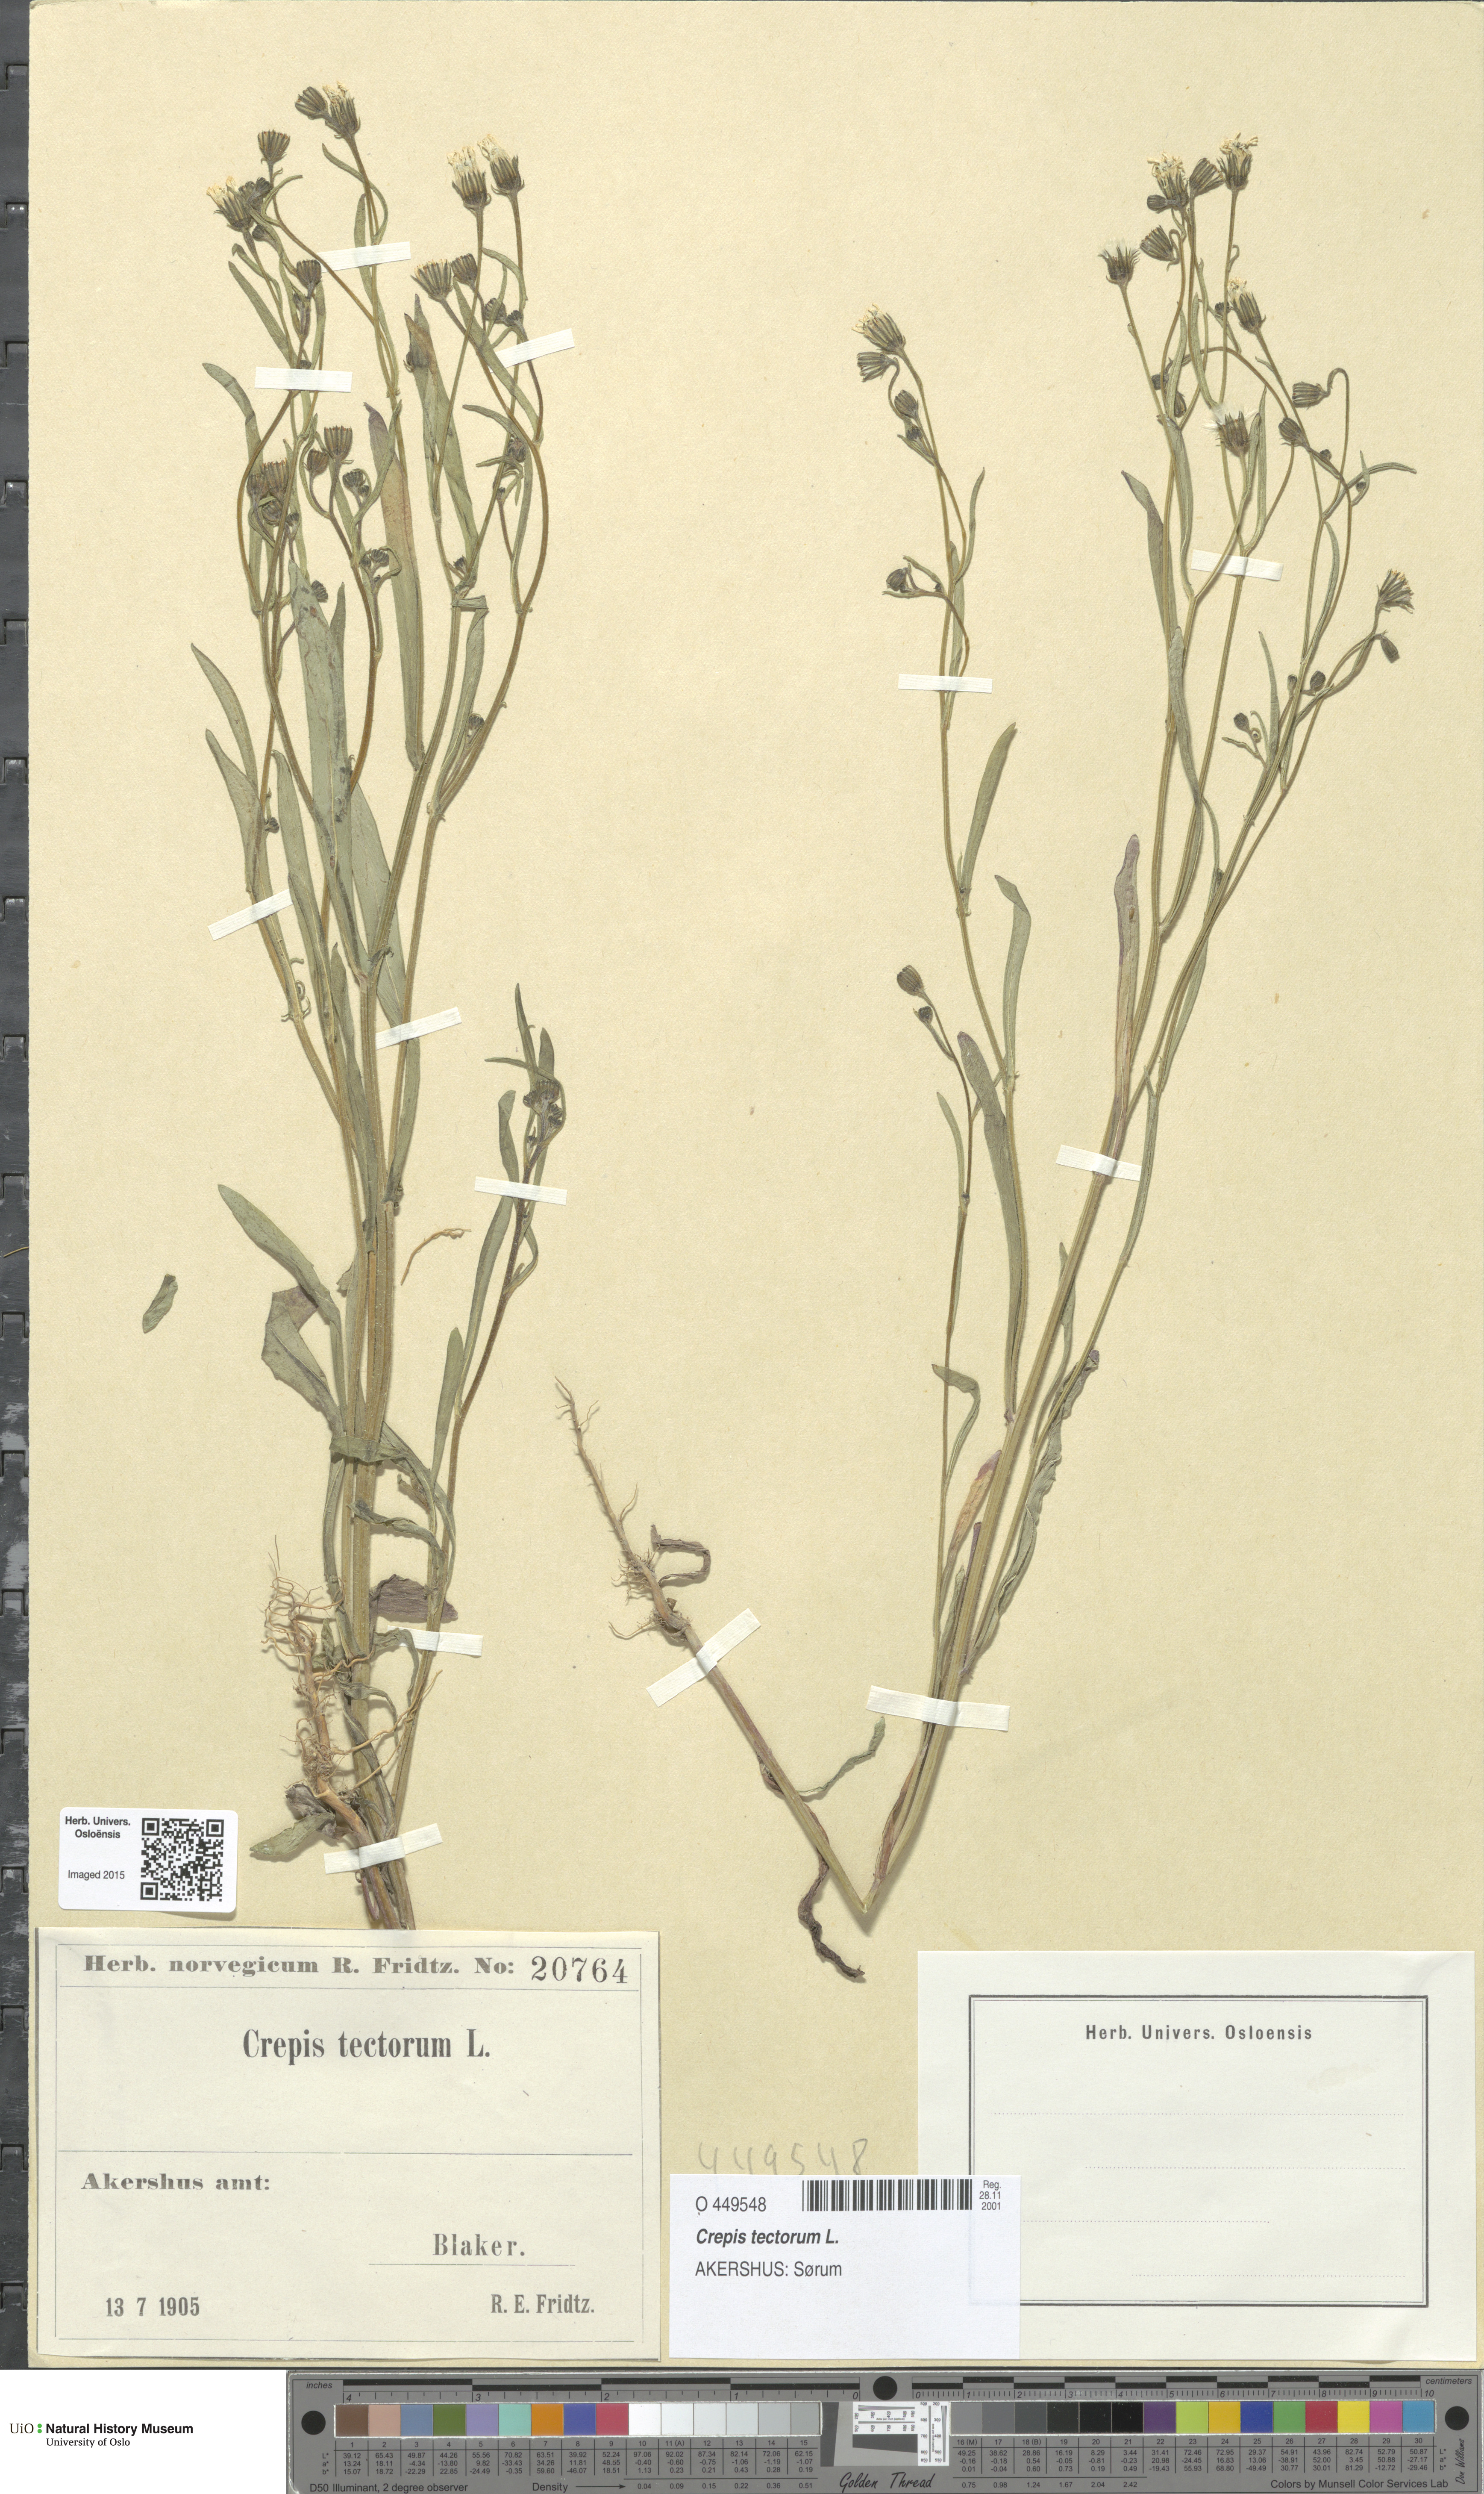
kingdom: Plantae
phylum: Tracheophyta
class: Magnoliopsida
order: Asterales
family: Asteraceae
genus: Crepis
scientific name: Crepis tectorum
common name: Narrow-leaved hawk's-beard
